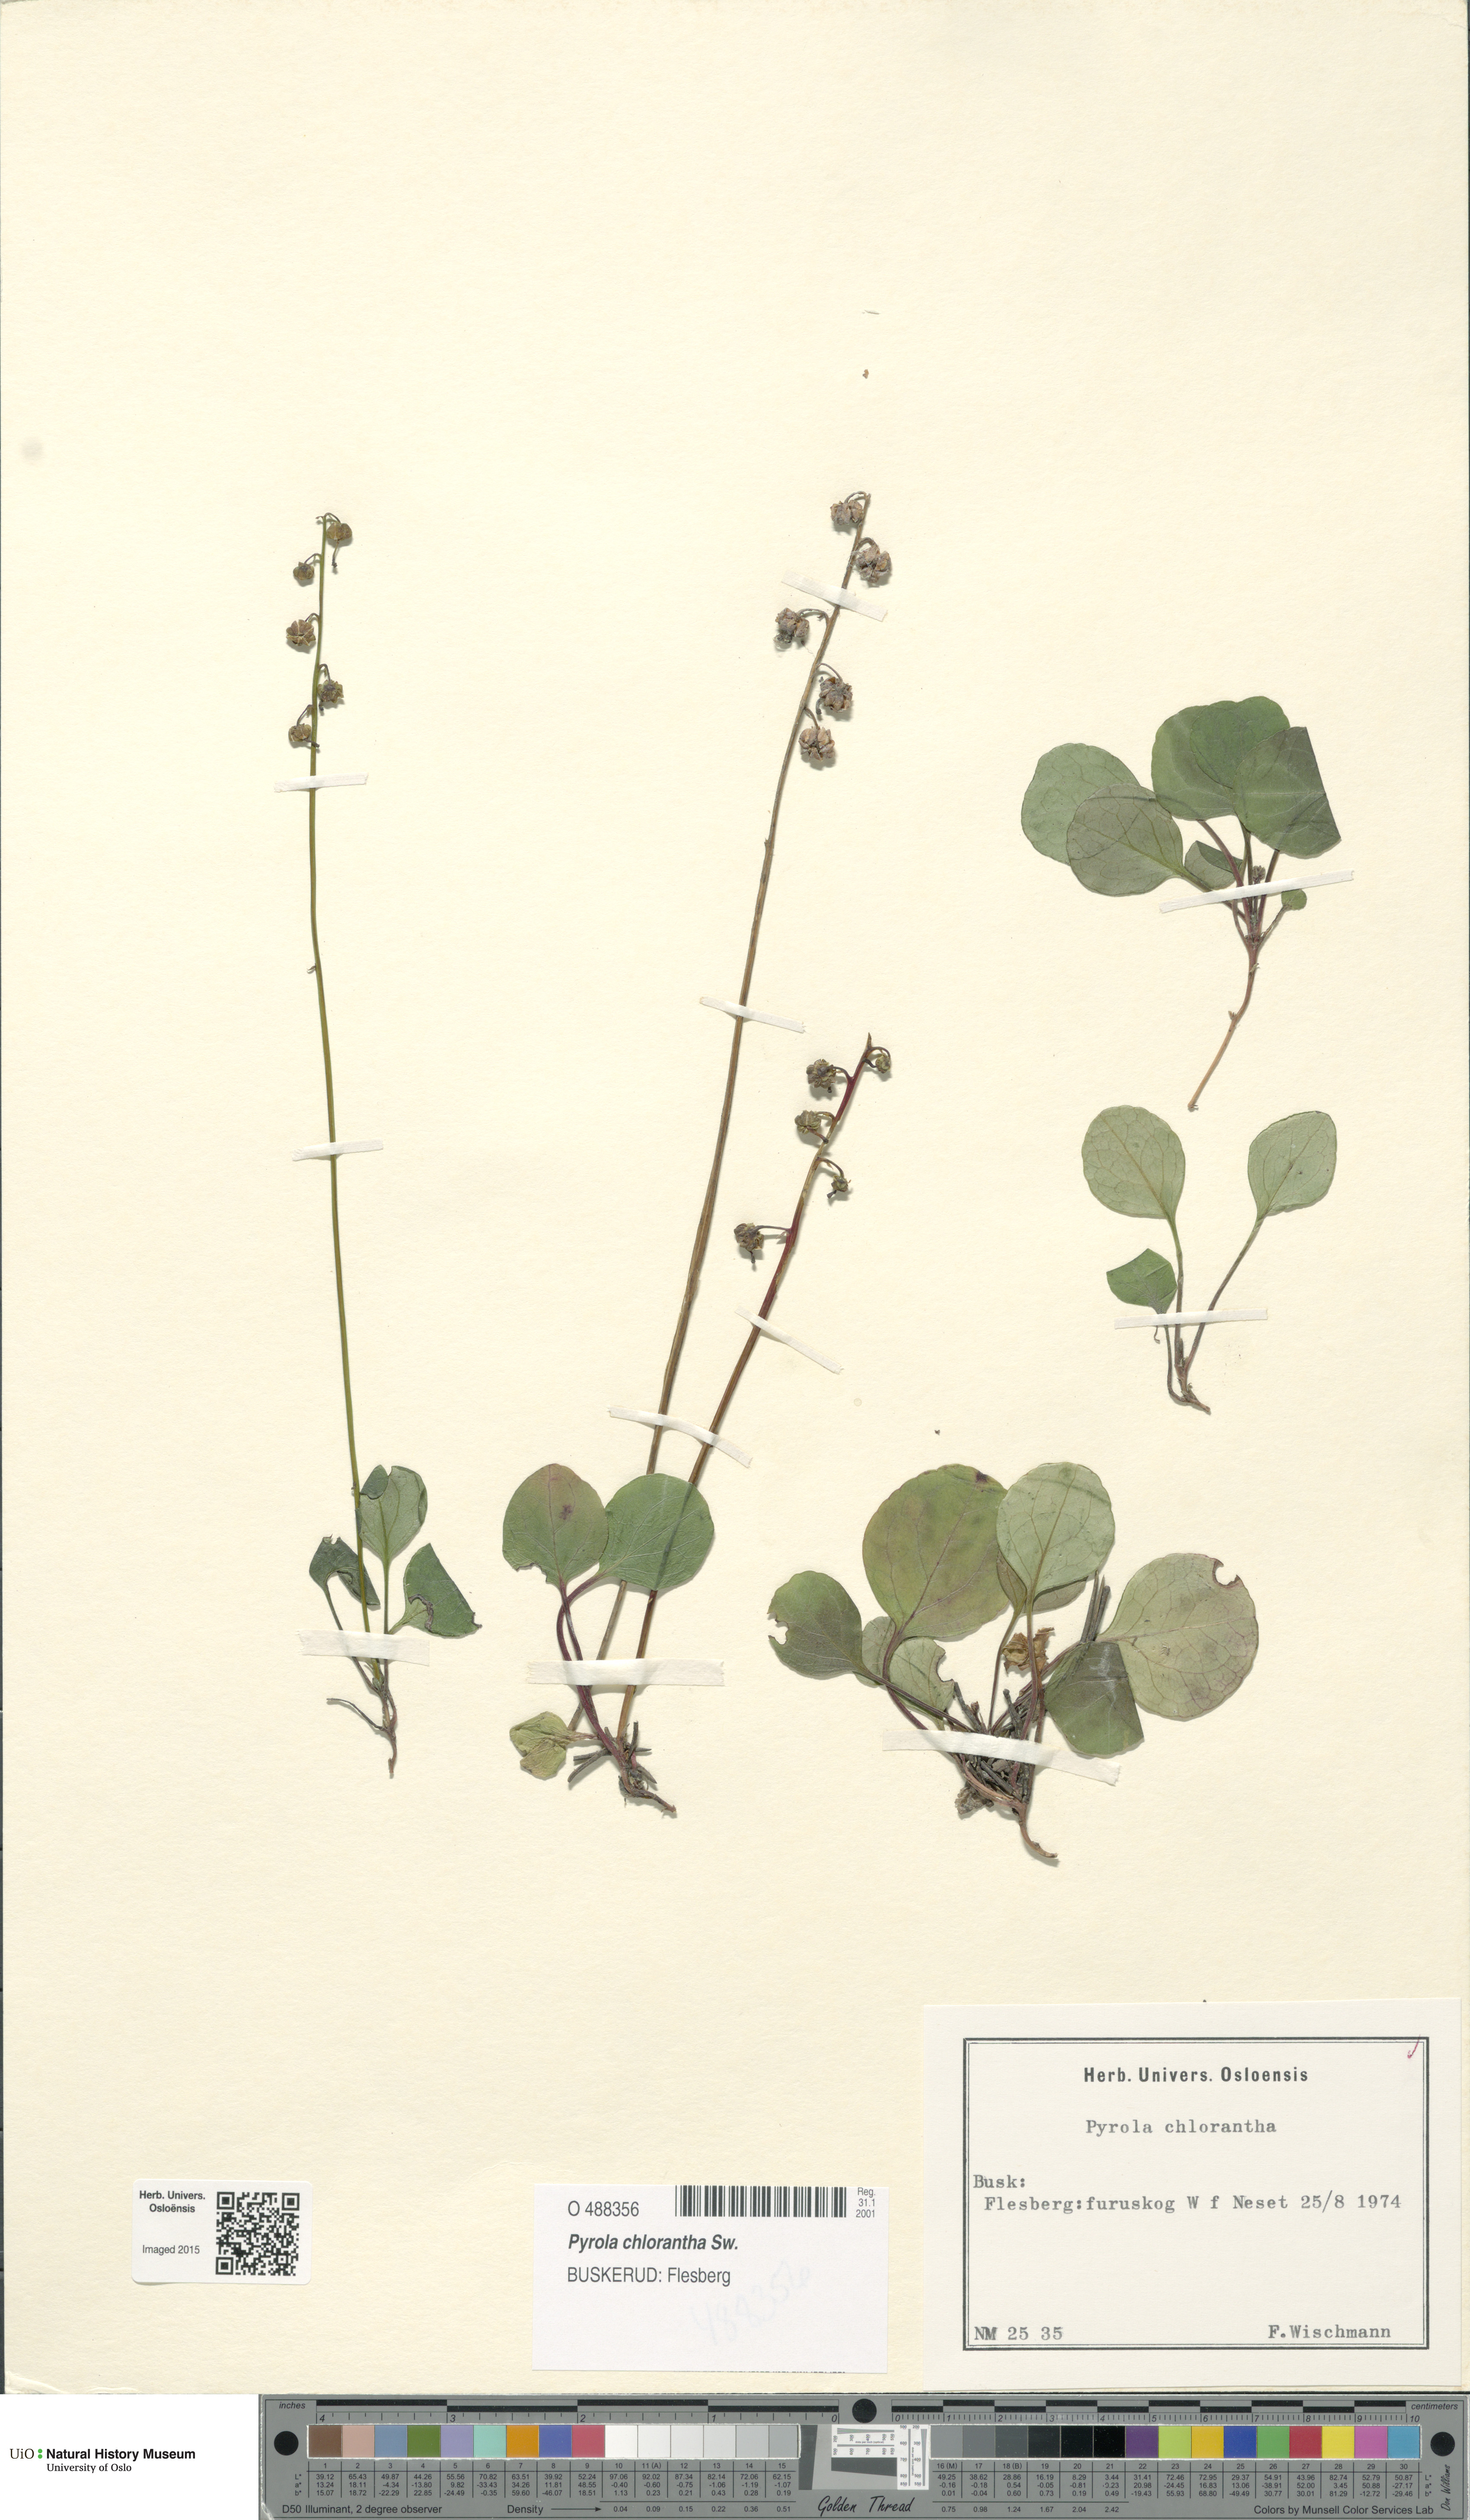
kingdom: Plantae
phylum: Tracheophyta
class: Magnoliopsida
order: Ericales
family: Ericaceae
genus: Pyrola
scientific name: Pyrola chlorantha
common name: Green wintergreen
